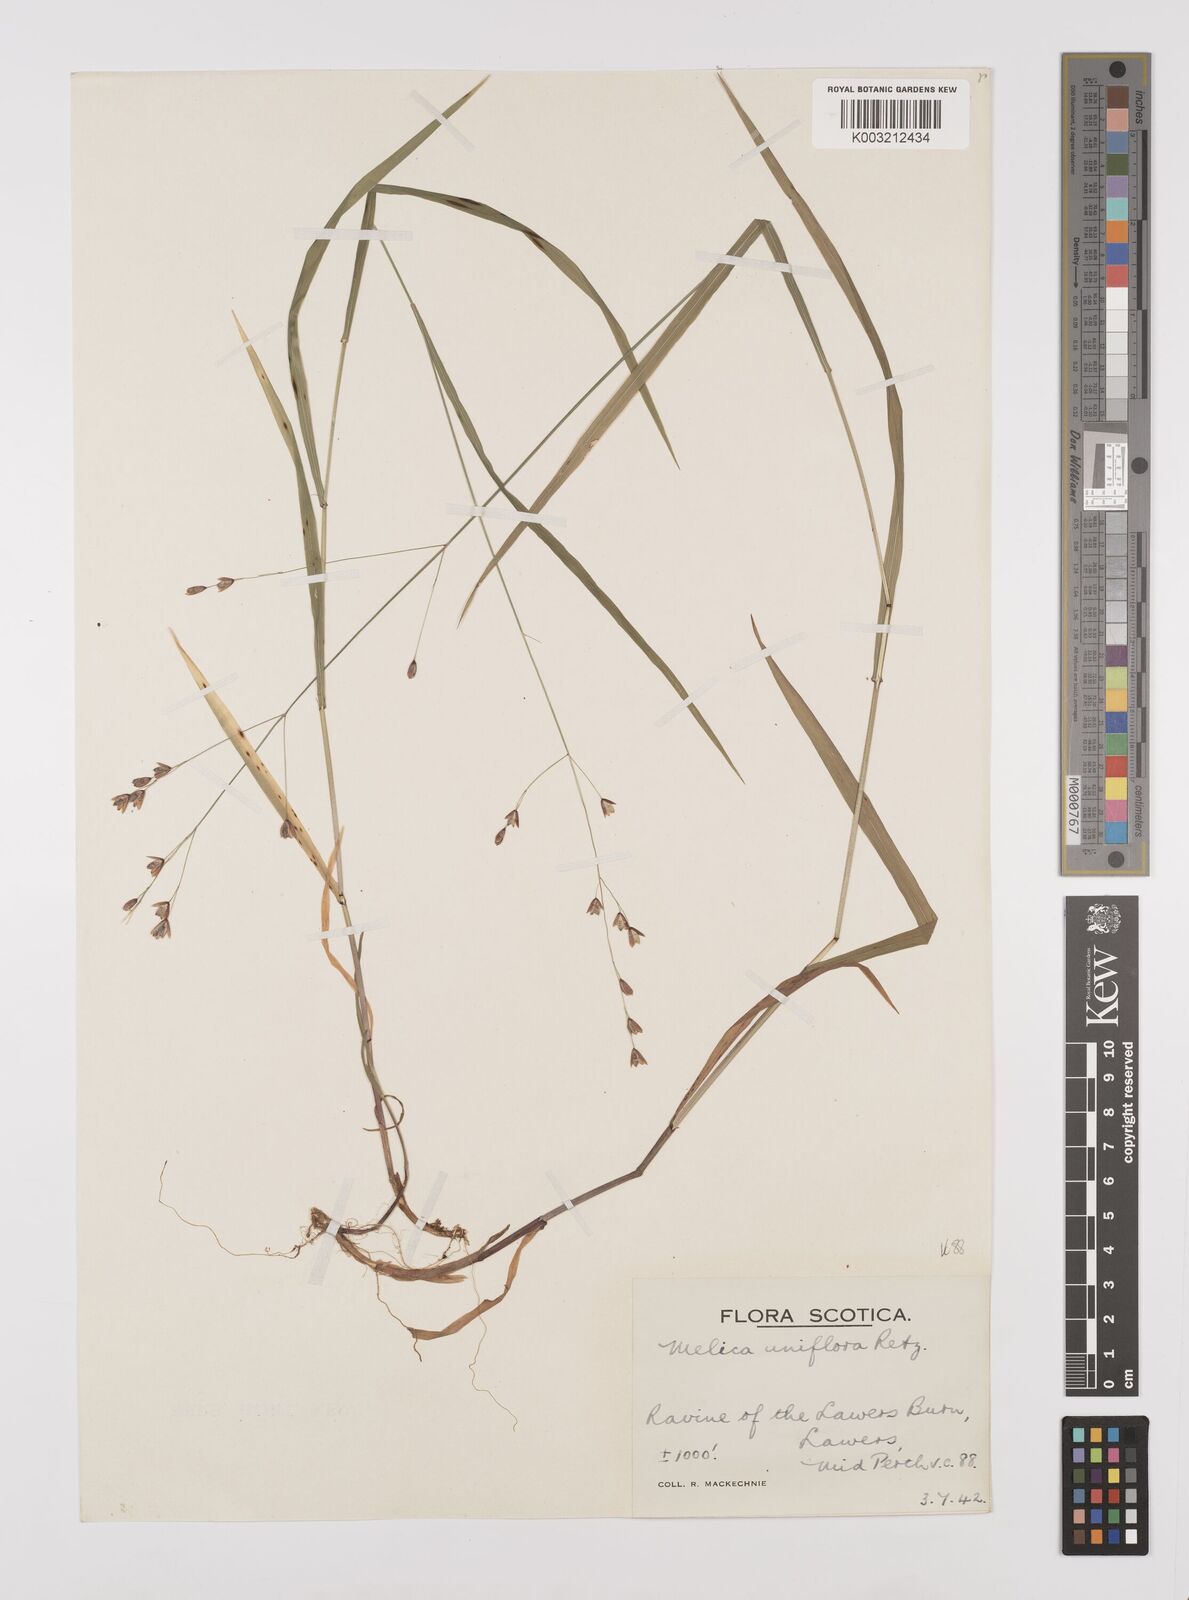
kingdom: Plantae
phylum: Tracheophyta
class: Liliopsida
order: Poales
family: Poaceae
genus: Melica
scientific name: Melica uniflora
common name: Wood melick
